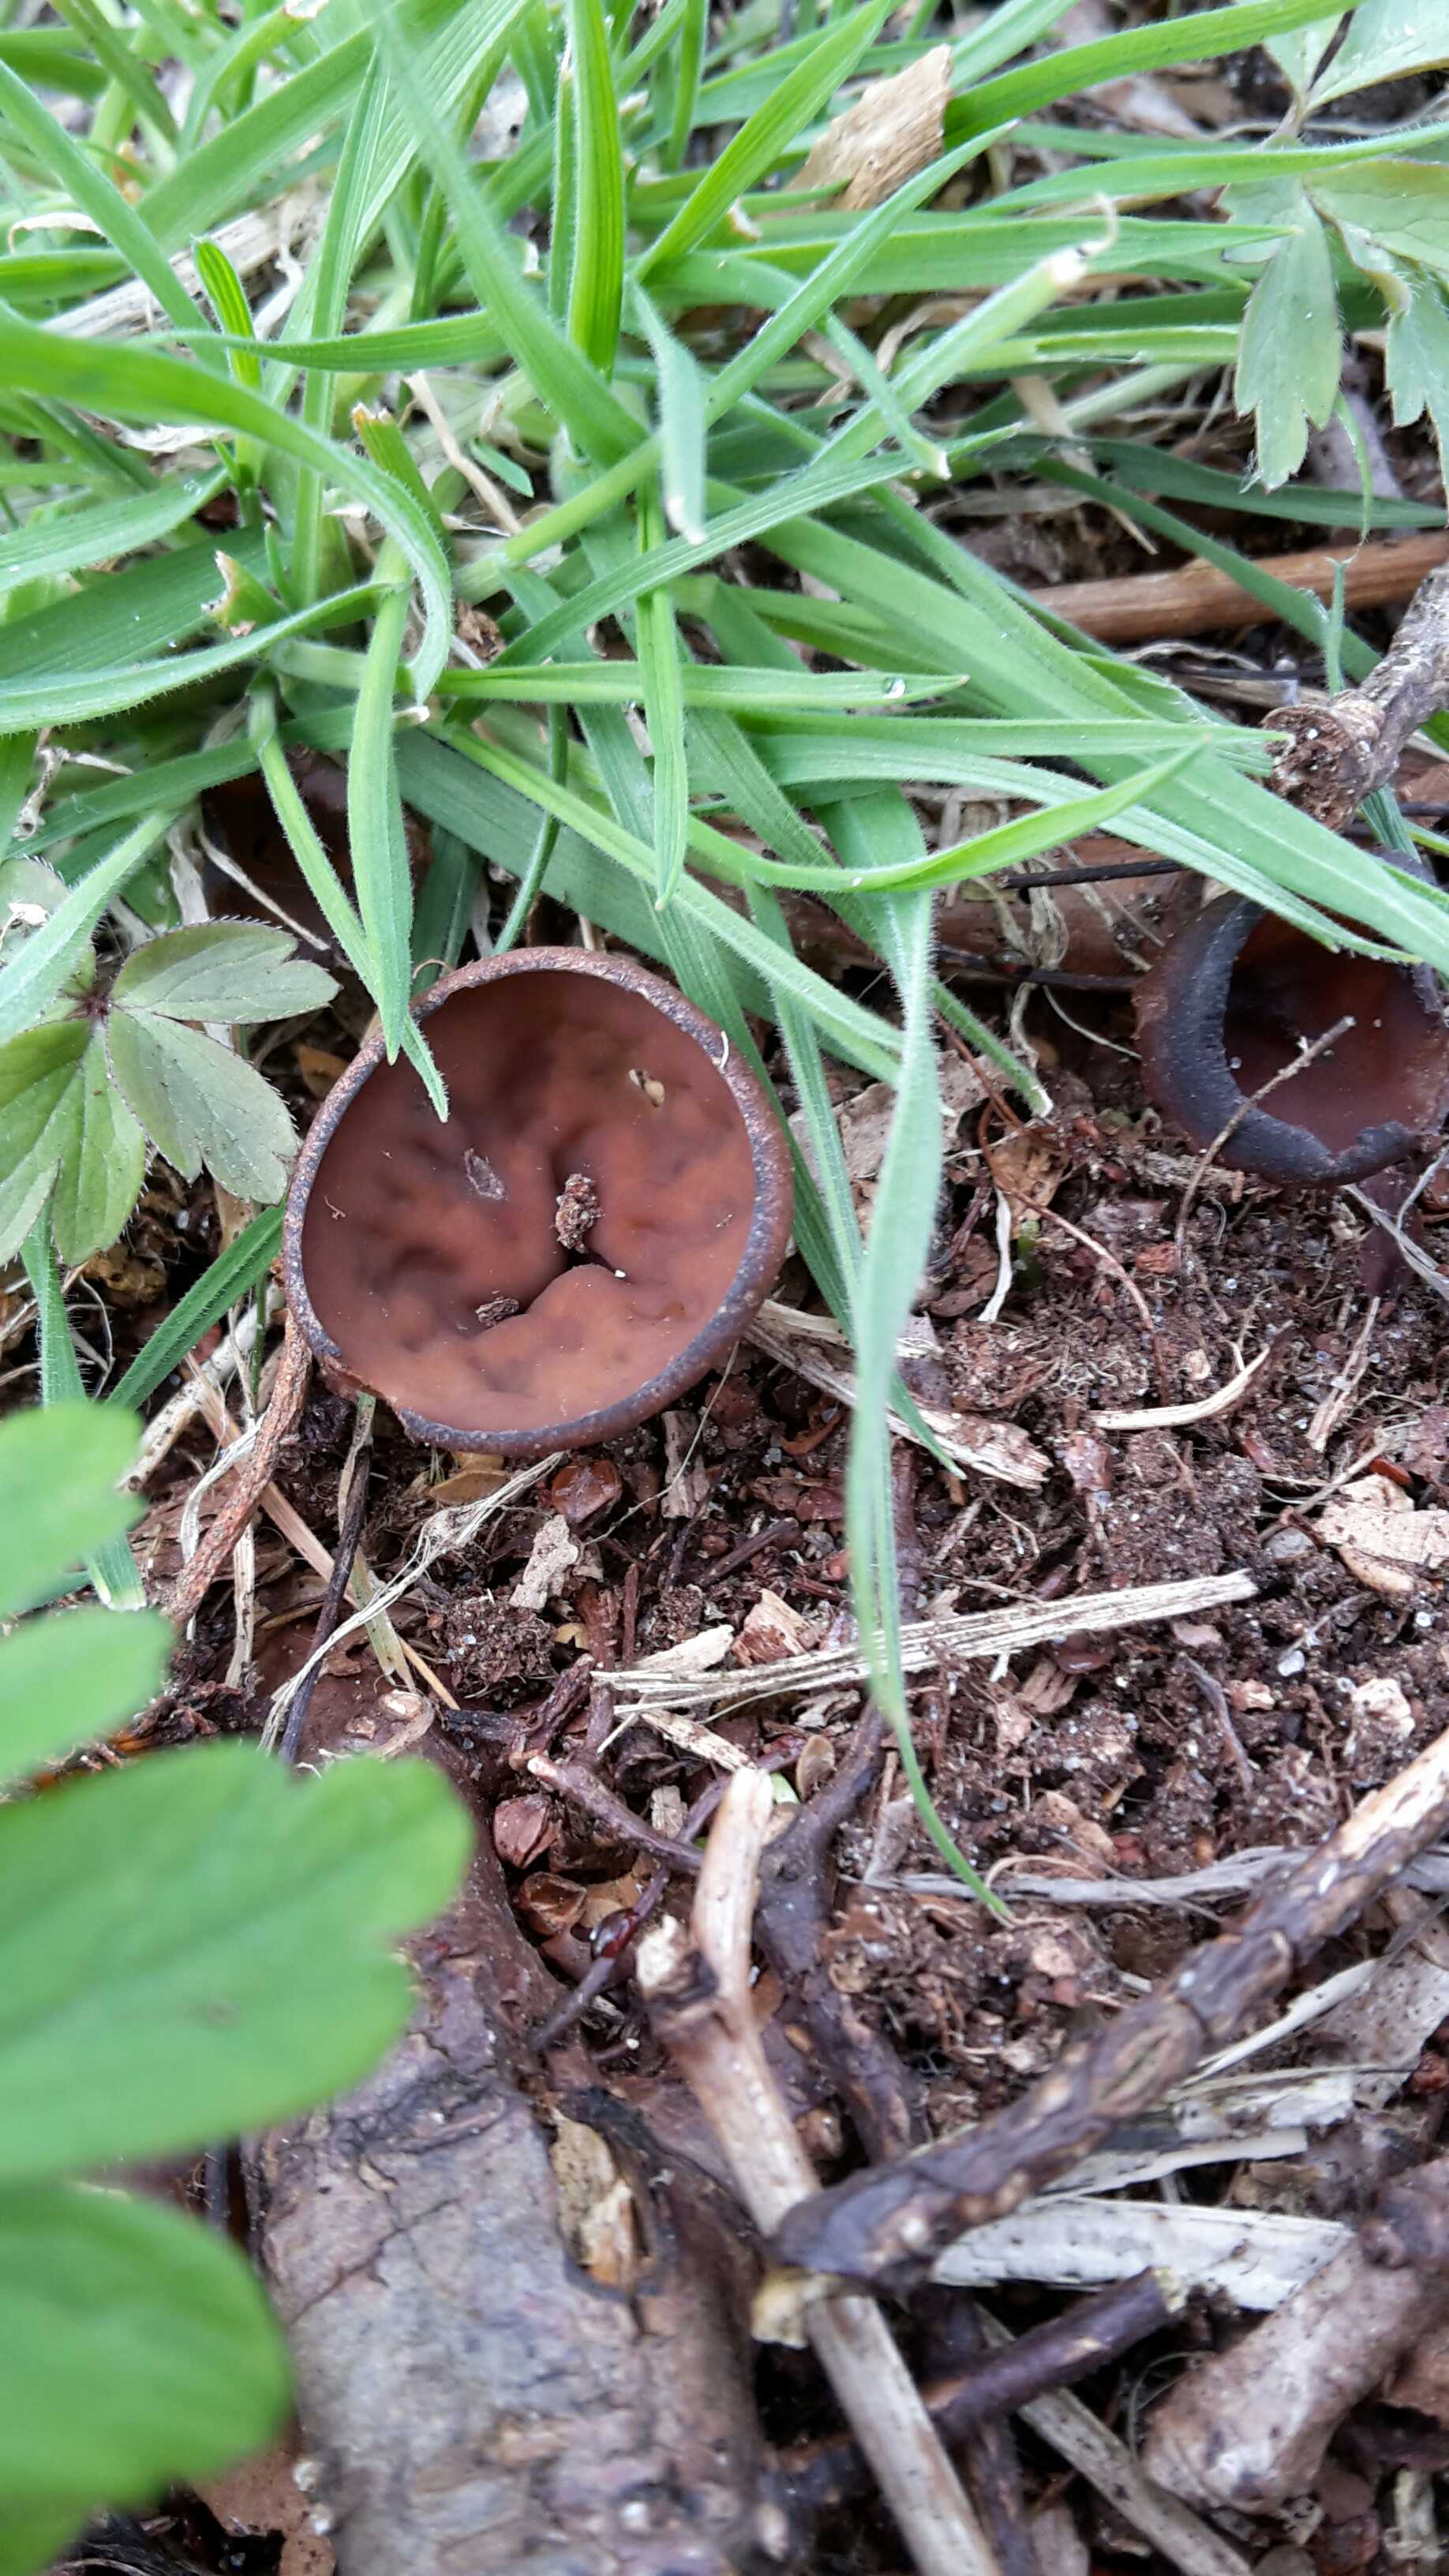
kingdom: Fungi
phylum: Ascomycota
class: Leotiomycetes
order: Helotiales
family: Sclerotiniaceae
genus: Dumontinia
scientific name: Dumontinia tuberosa
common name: anemone-knoldskive
